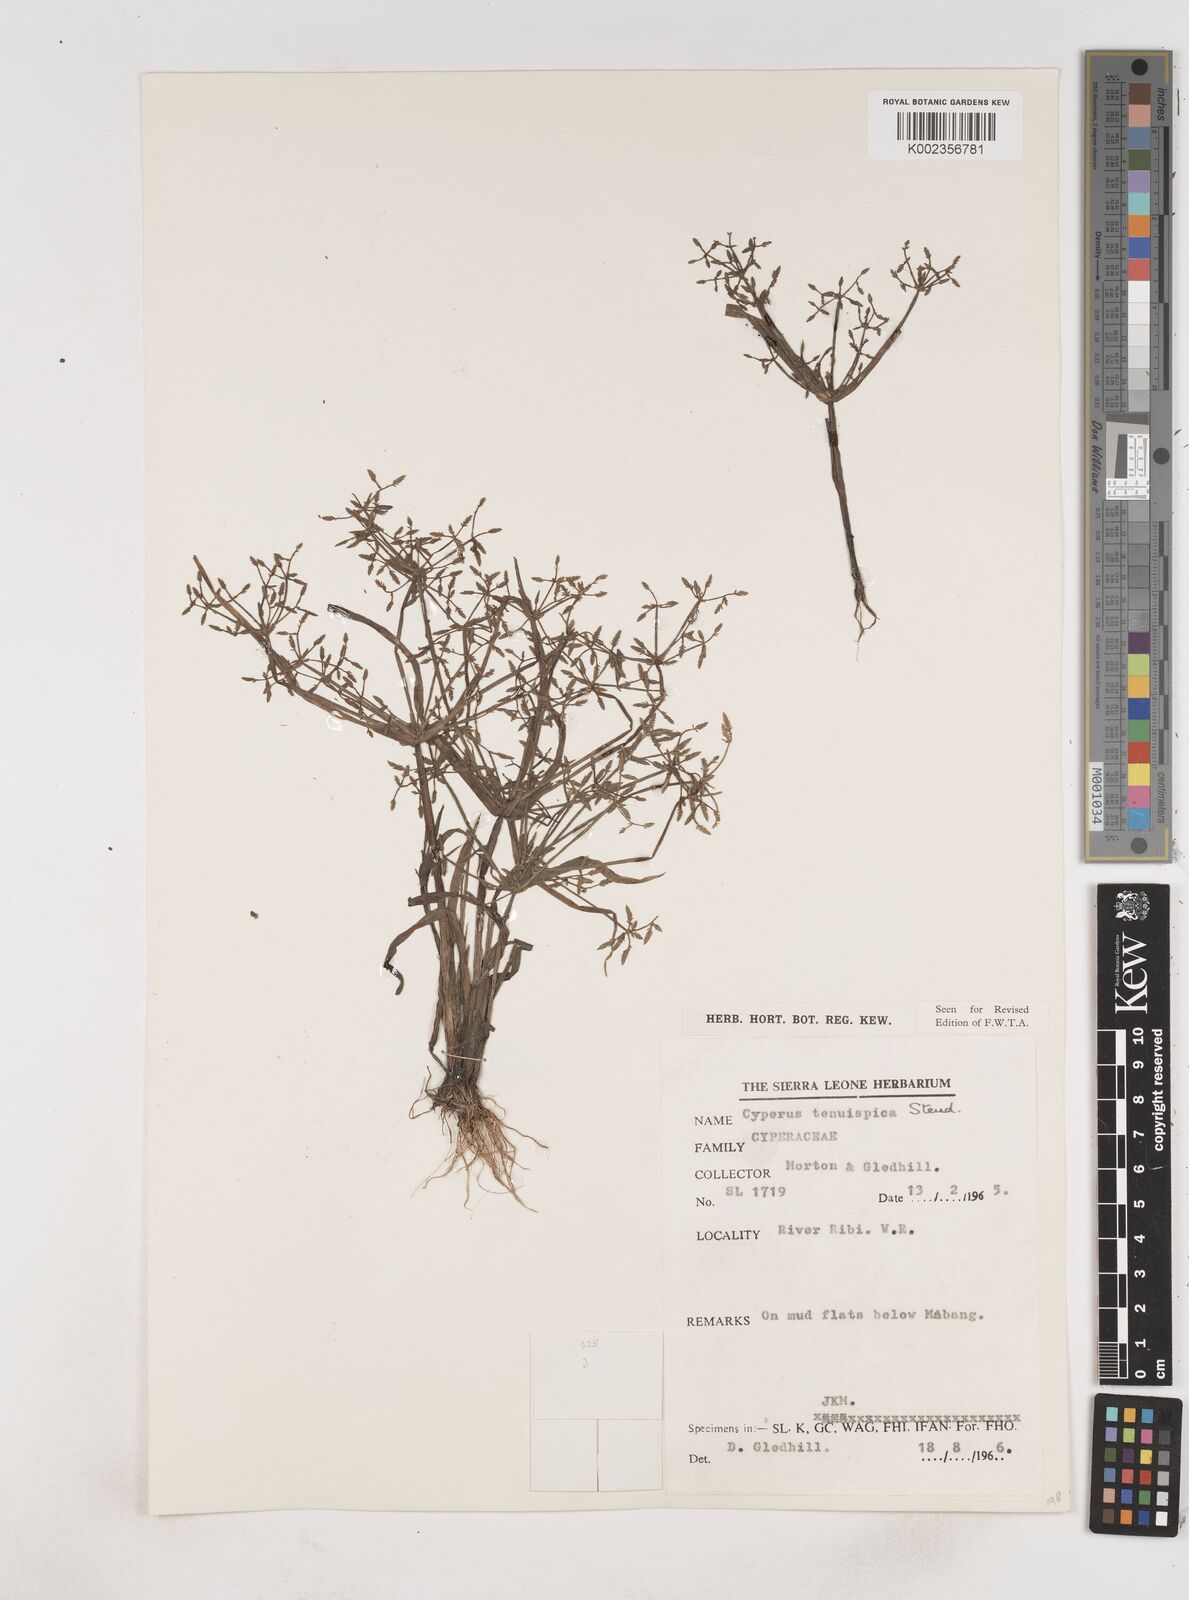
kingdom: Plantae
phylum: Tracheophyta
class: Liliopsida
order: Poales
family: Cyperaceae
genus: Cyperus
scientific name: Cyperus tenuispica
